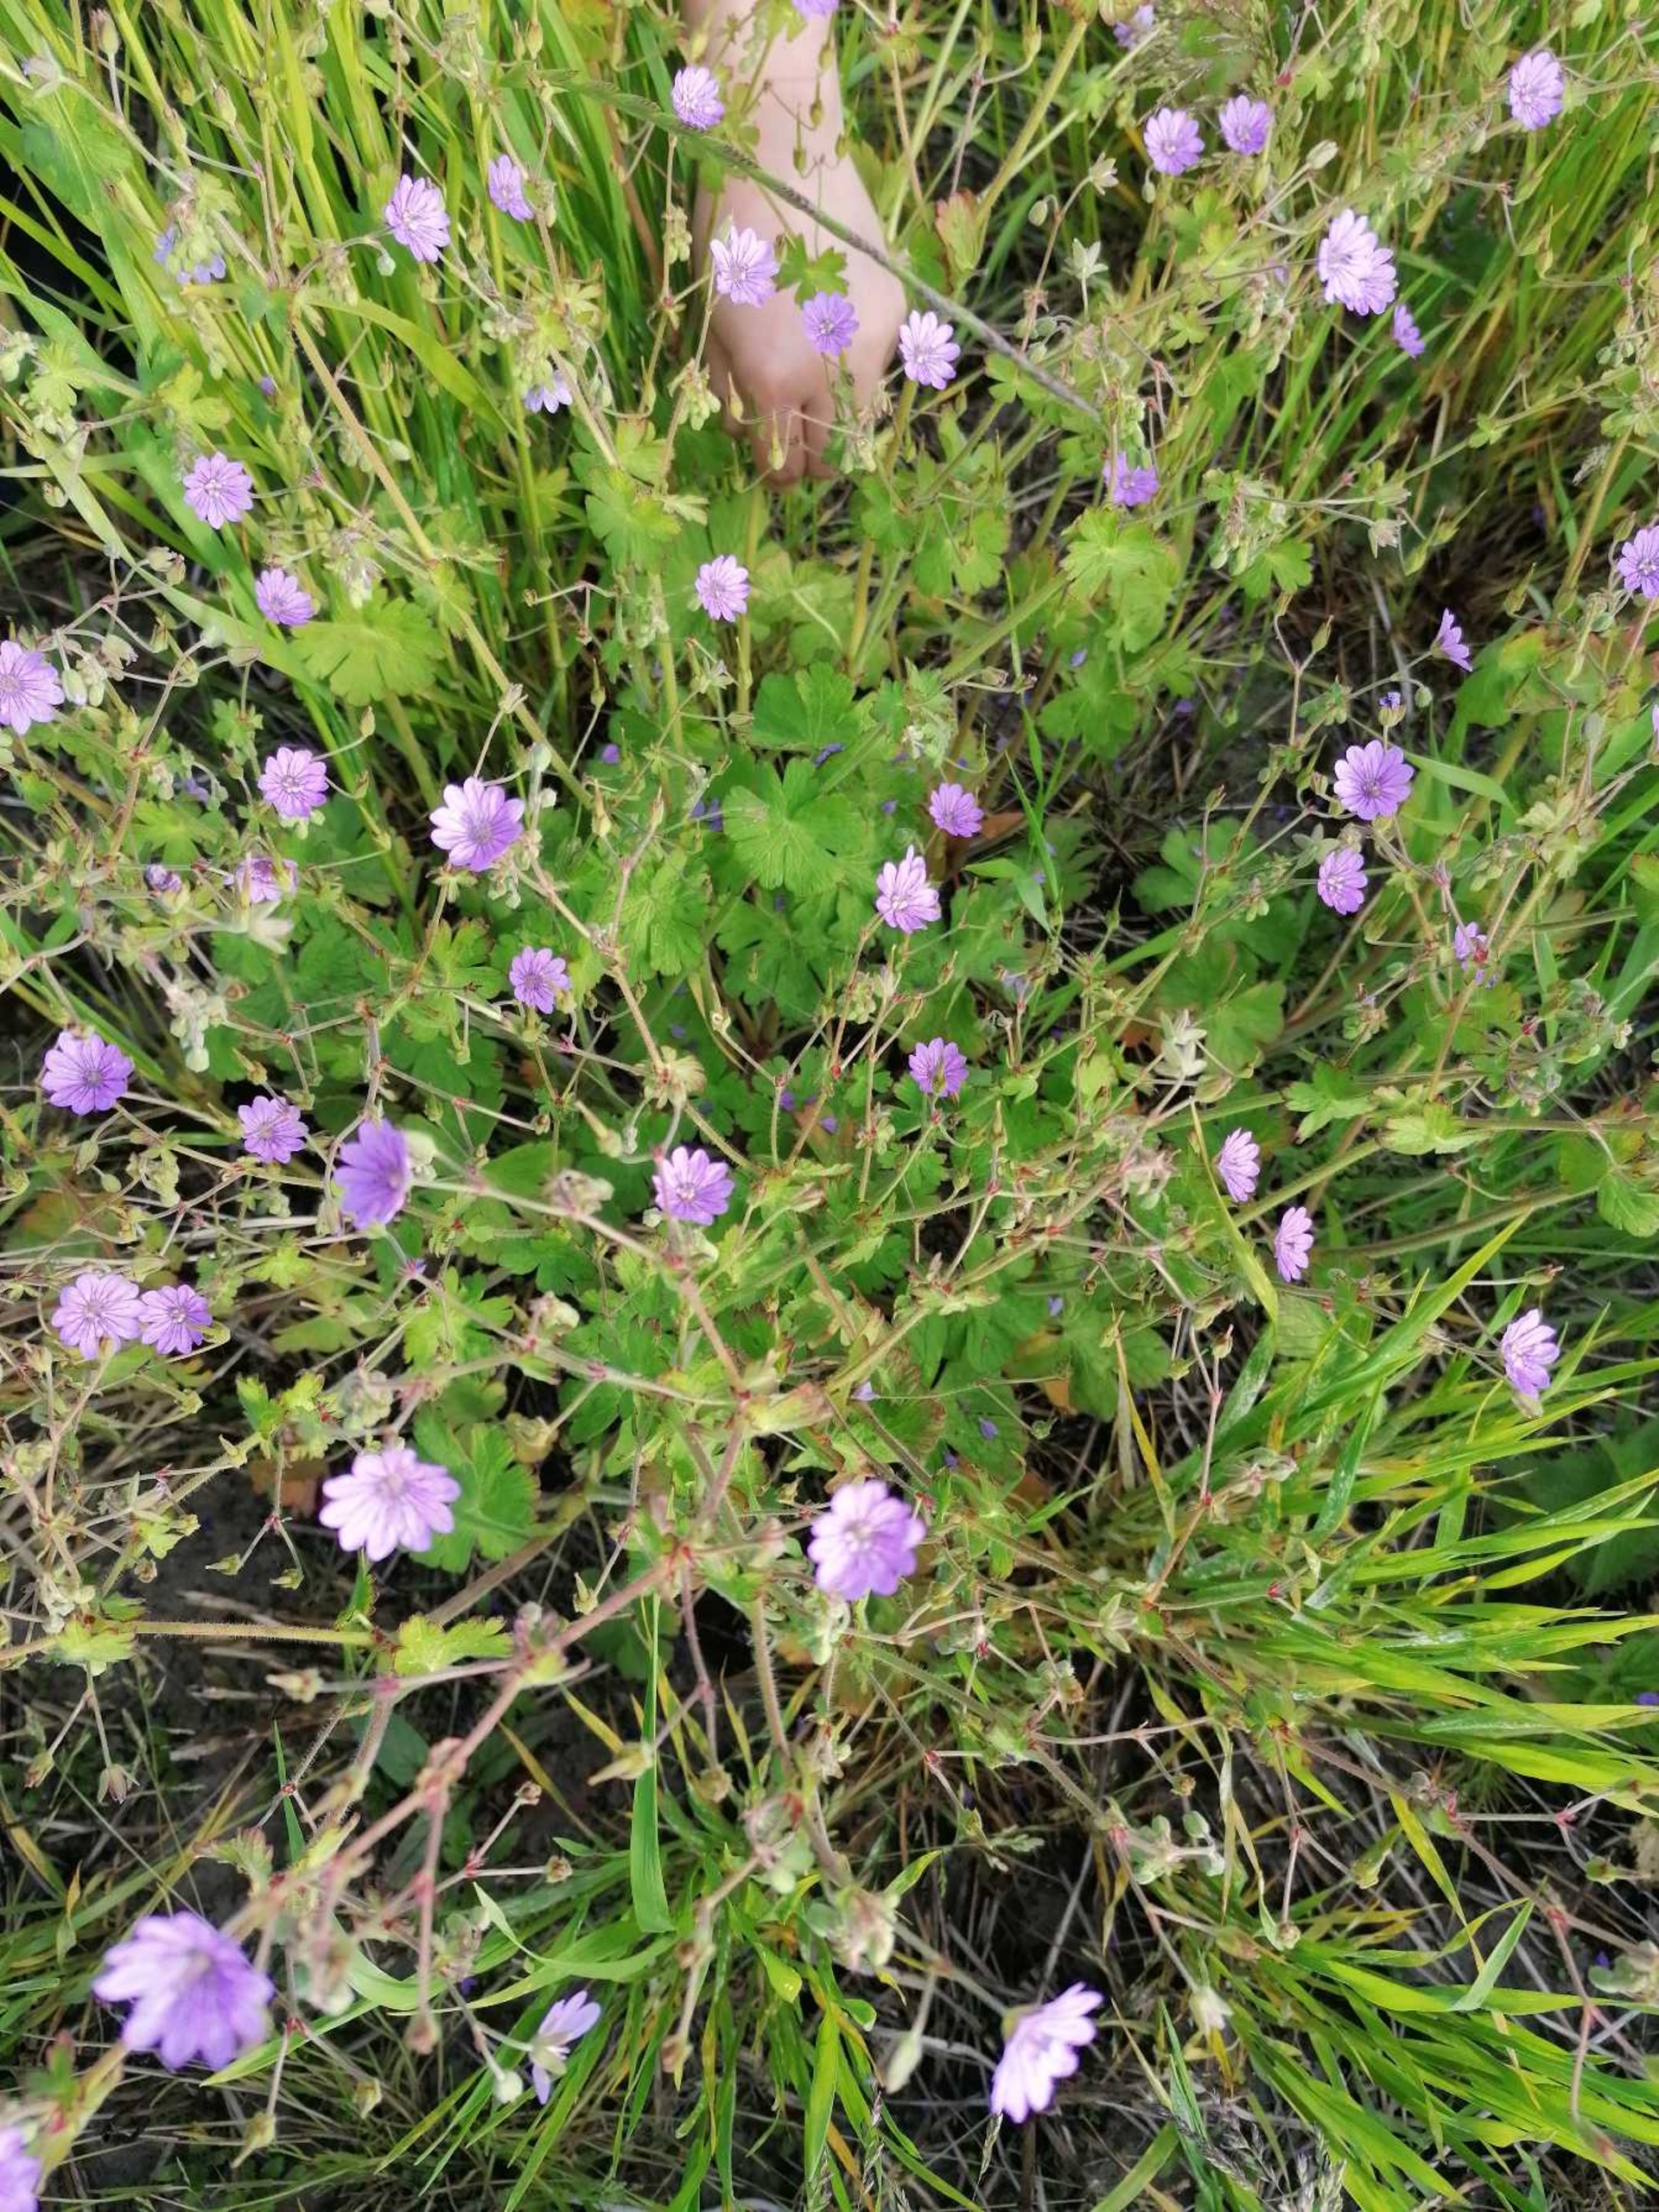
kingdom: Plantae
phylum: Tracheophyta
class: Magnoliopsida
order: Geraniales
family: Geraniaceae
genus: Geranium
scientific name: Geranium pyrenaicum
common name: Pyrenæisk storkenæb
